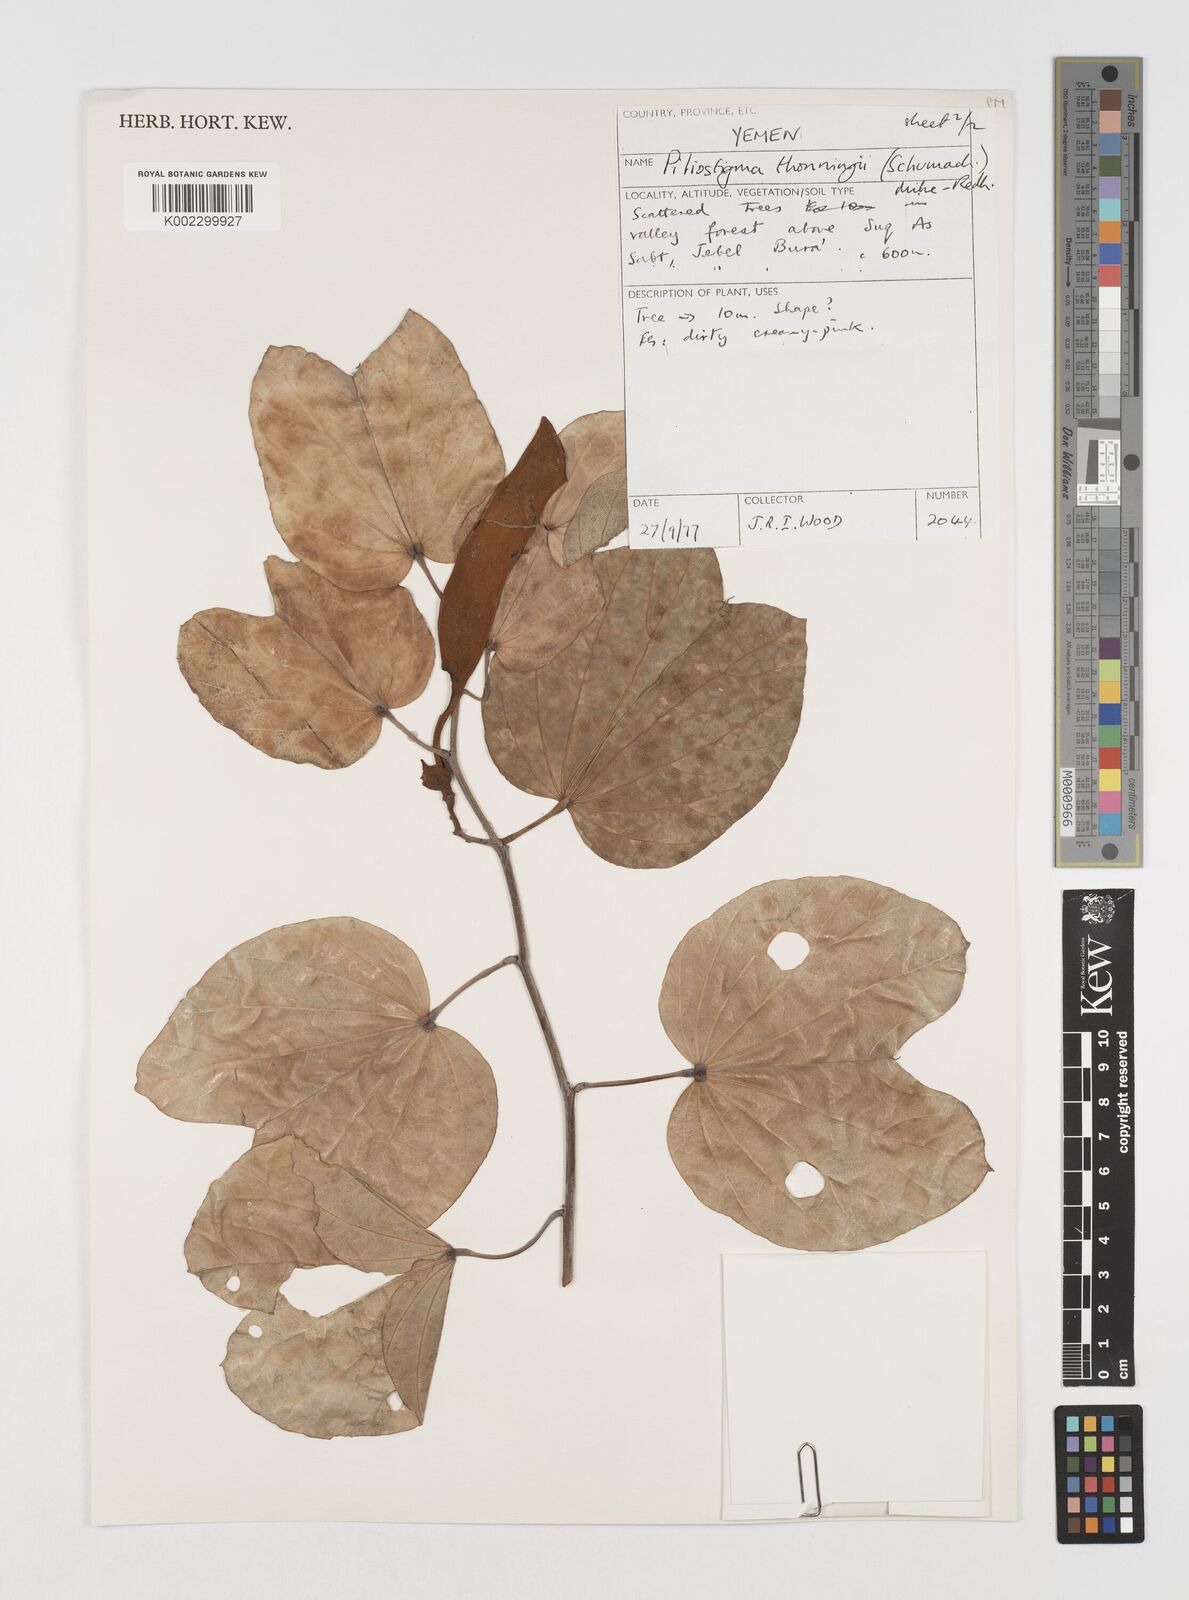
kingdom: Plantae
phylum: Tracheophyta
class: Magnoliopsida
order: Fabales
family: Fabaceae
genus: Piliostigma
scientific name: Piliostigma thonningii
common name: Kao
